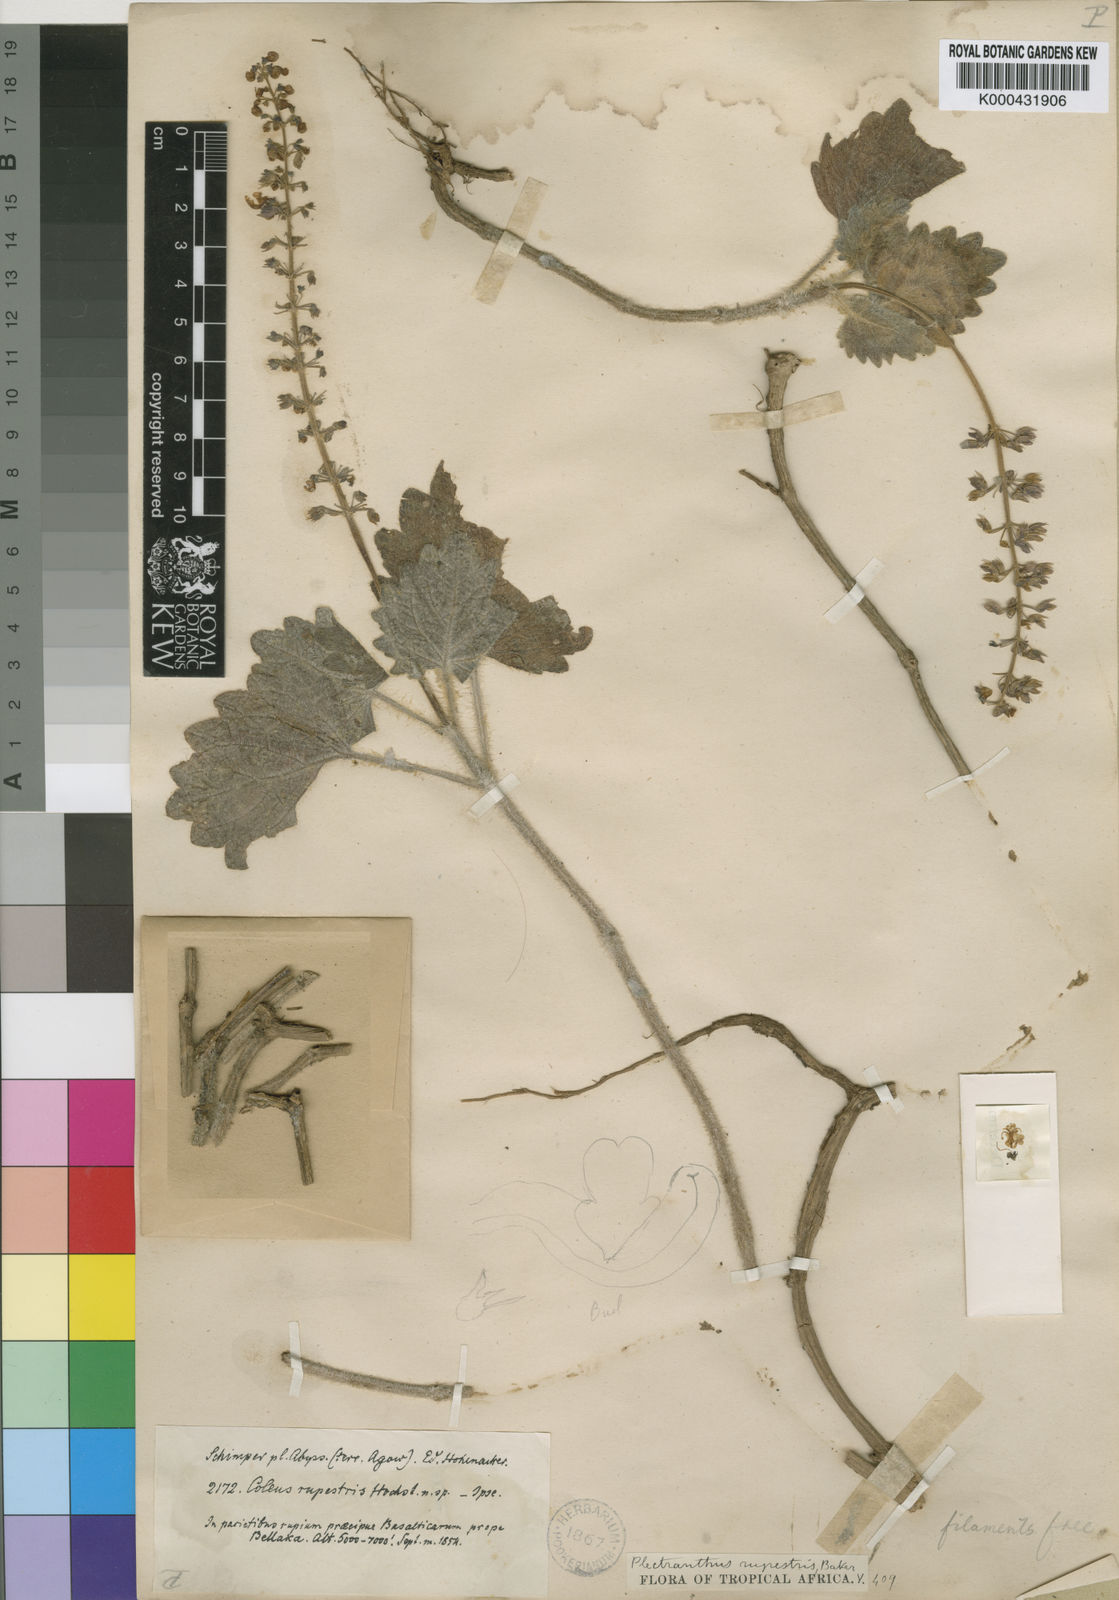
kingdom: Plantae
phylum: Tracheophyta
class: Magnoliopsida
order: Lamiales
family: Lamiaceae
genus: Coleus
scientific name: Coleus hadiensis
